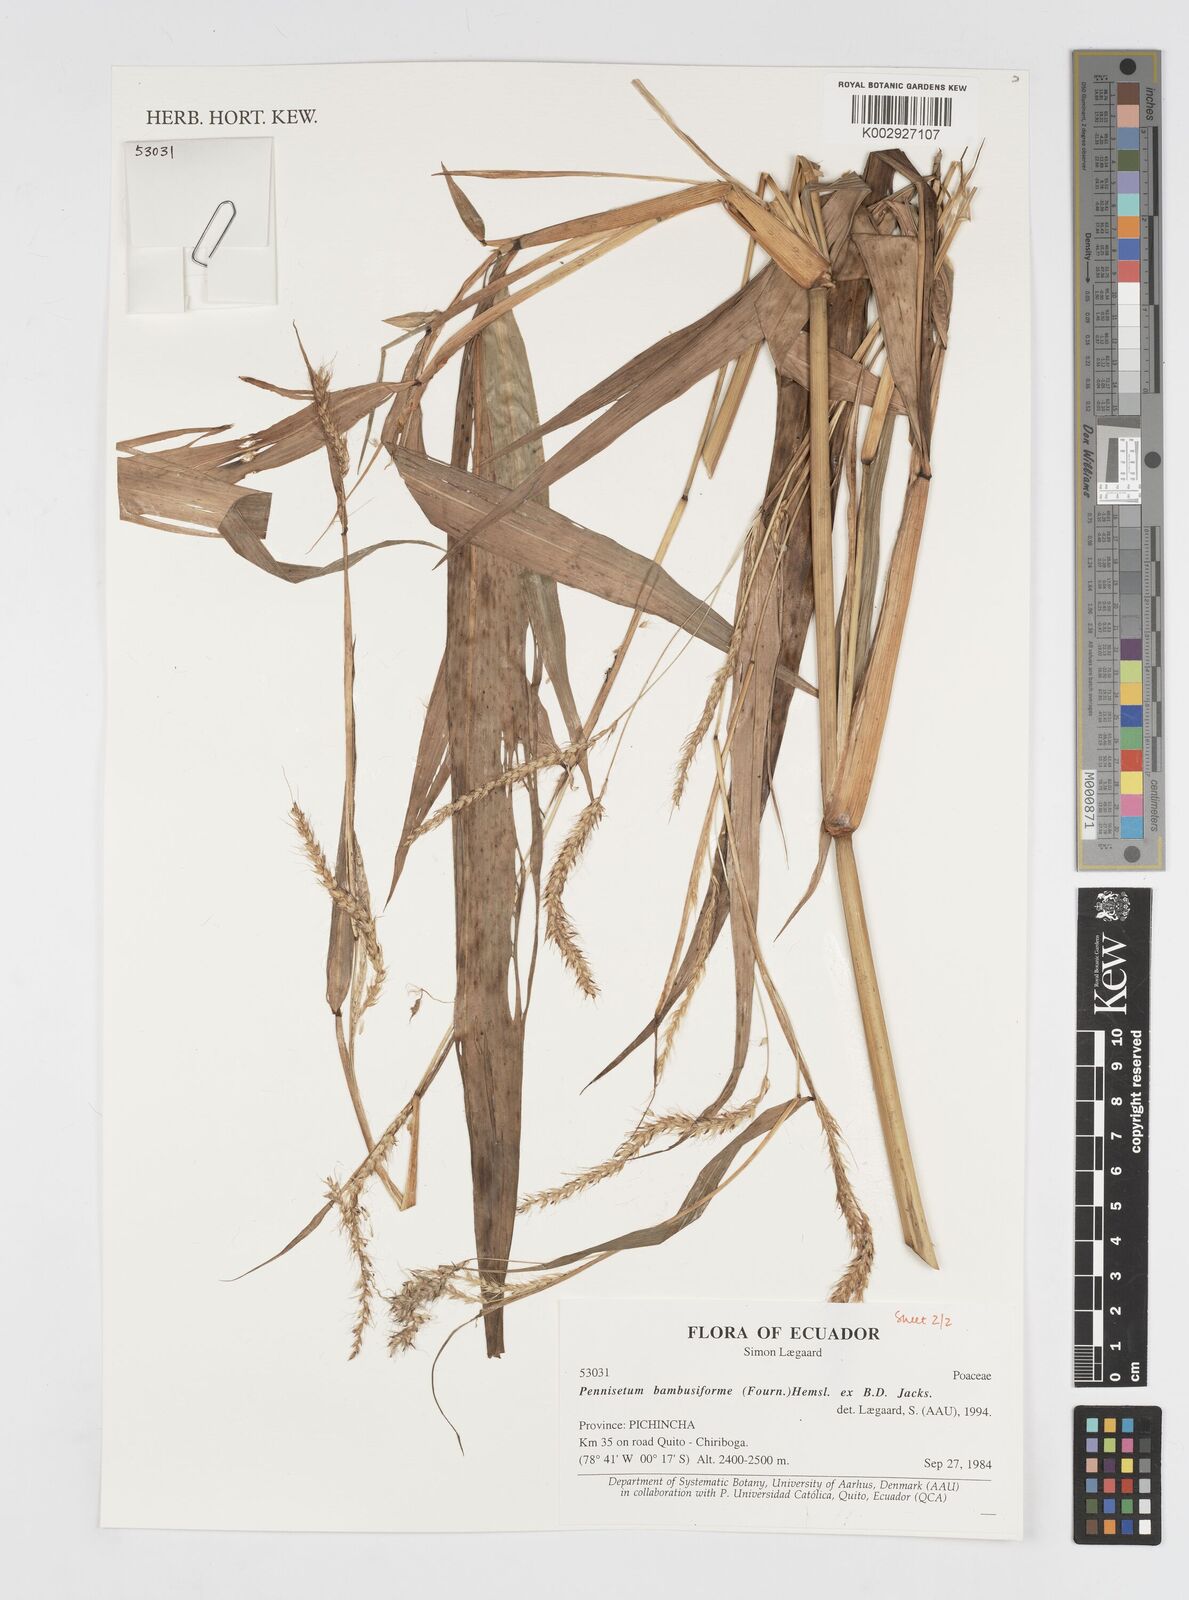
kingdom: Plantae
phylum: Tracheophyta
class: Liliopsida
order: Poales
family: Poaceae
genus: Cenchrus
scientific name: Cenchrus tristachyus
